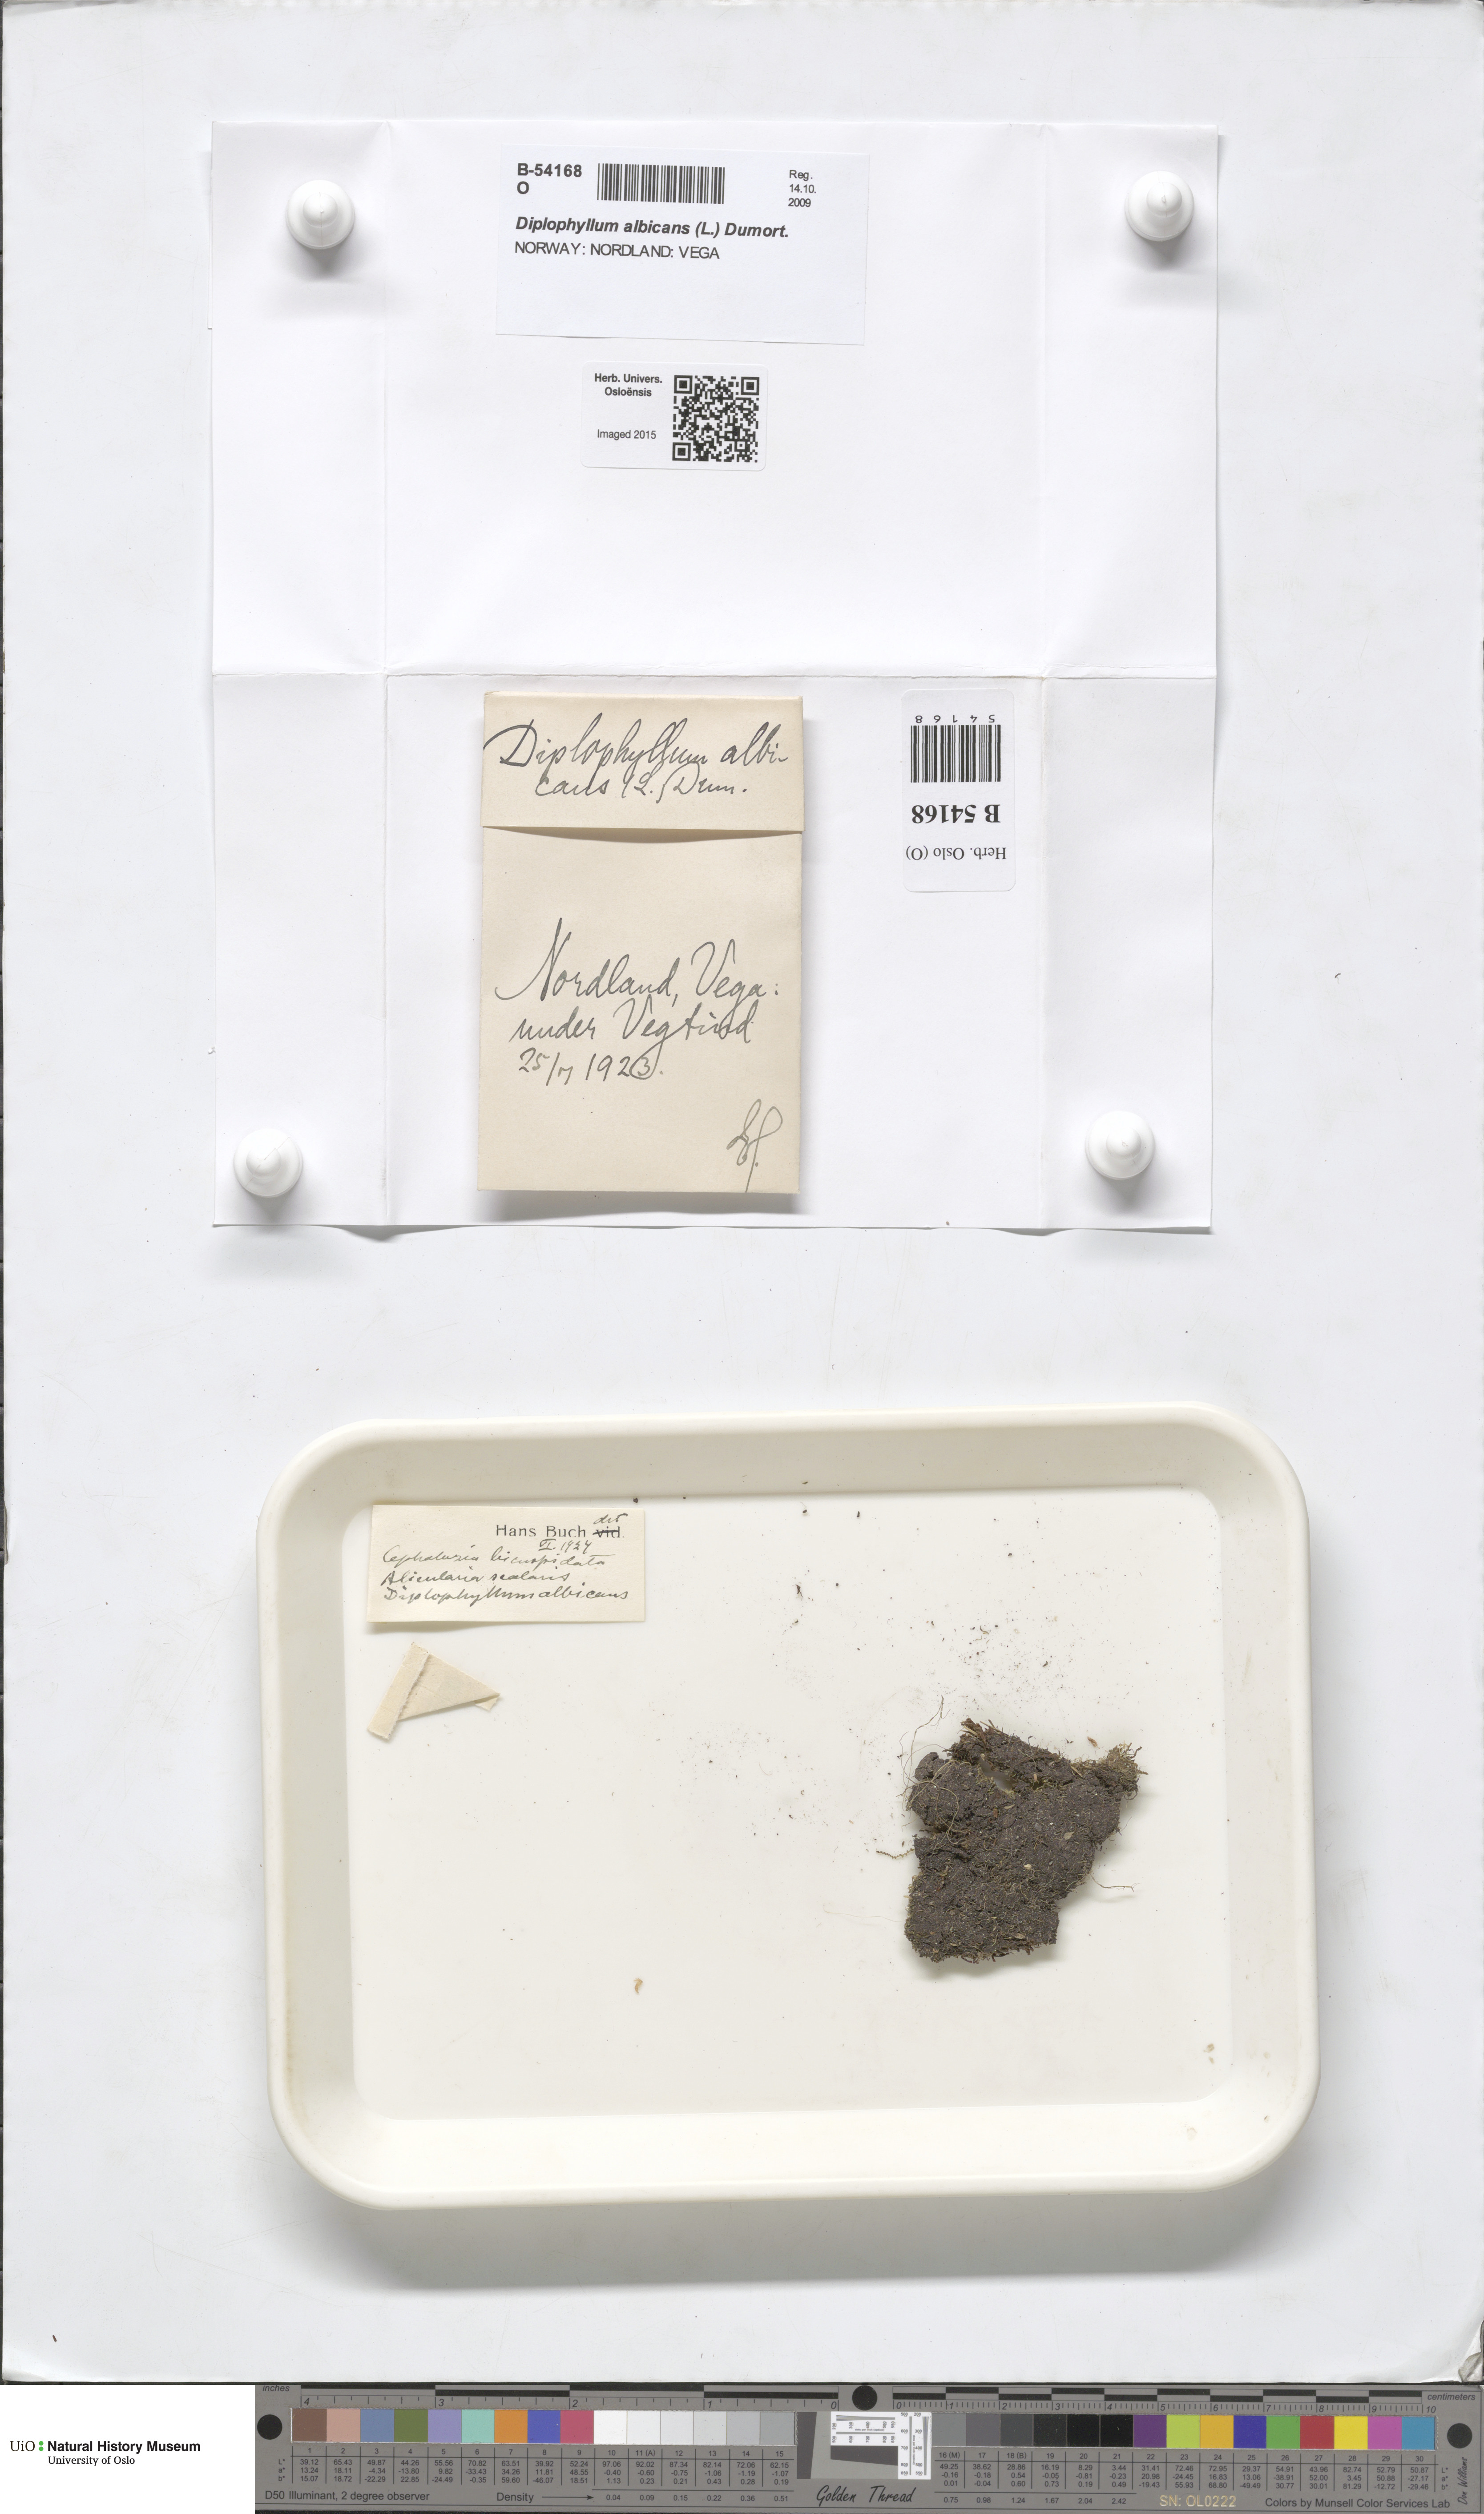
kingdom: Plantae
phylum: Marchantiophyta
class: Jungermanniopsida
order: Jungermanniales
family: Scapaniaceae
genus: Diplophyllum
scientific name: Diplophyllum albicans
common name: White earwort
